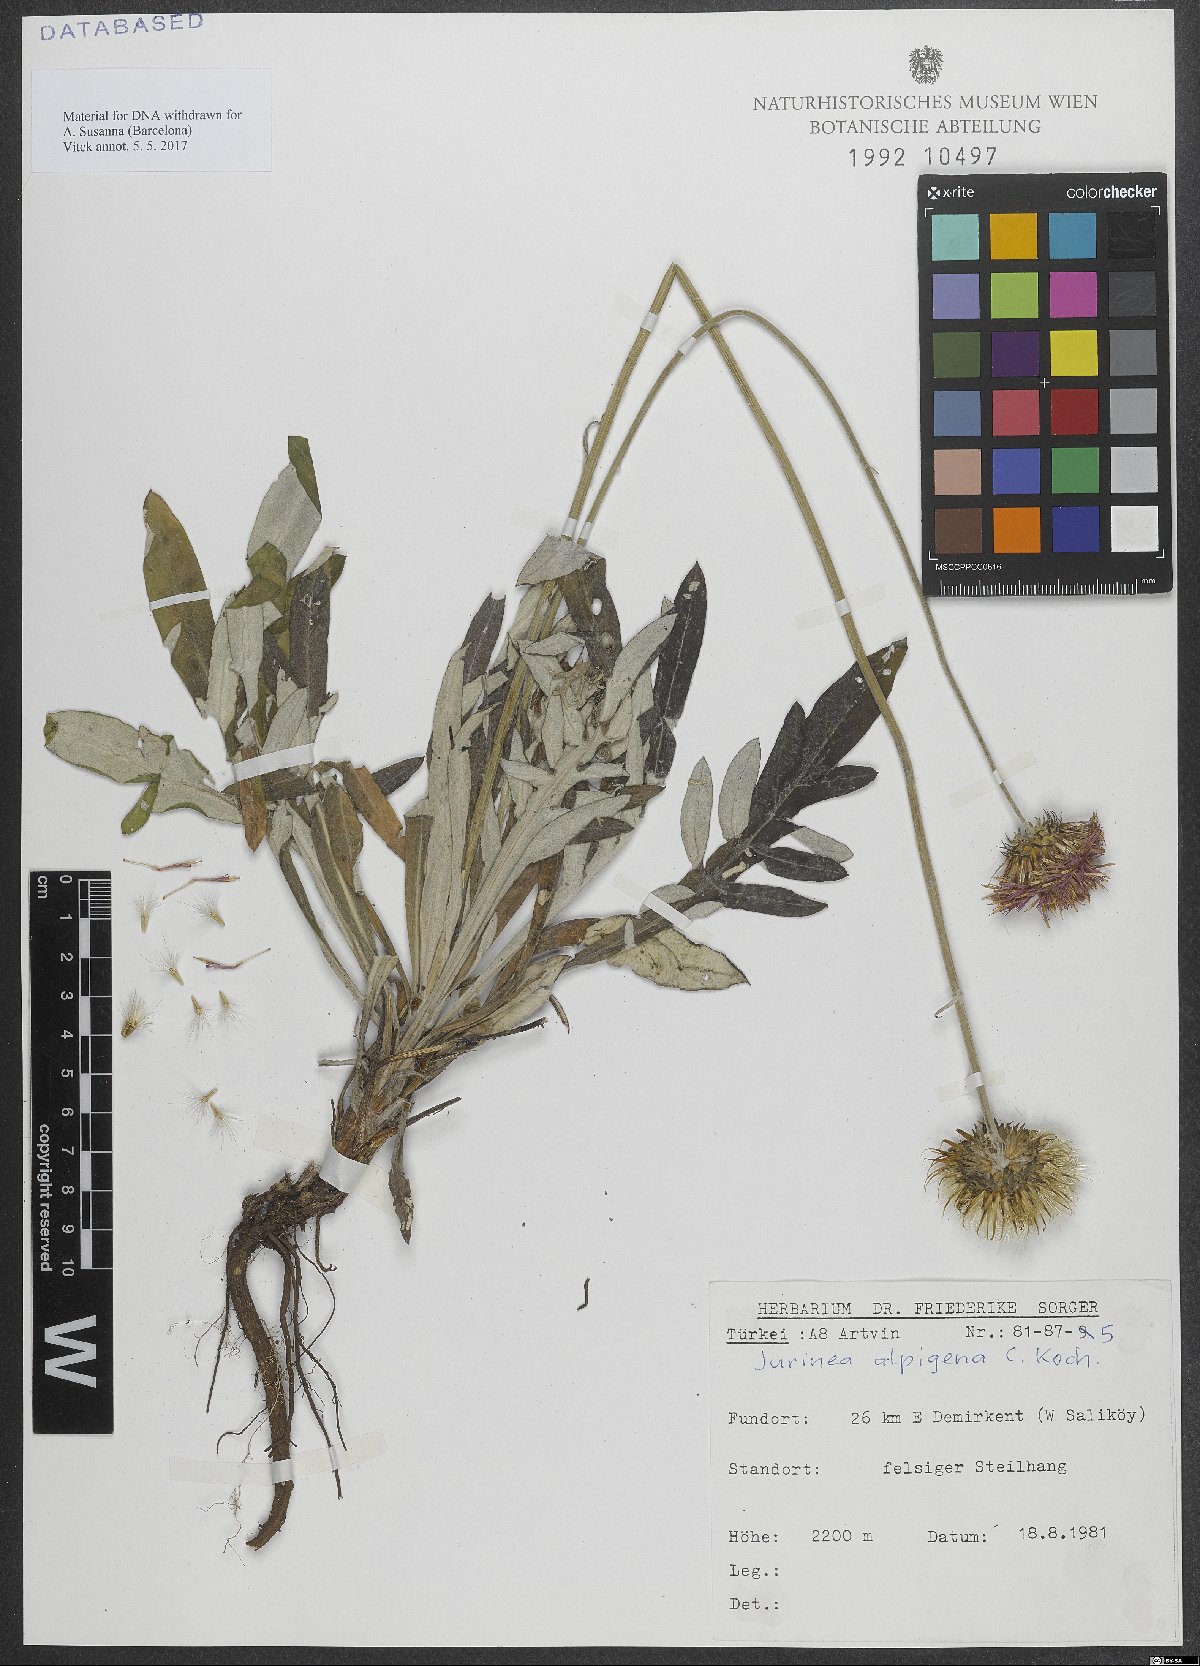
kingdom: Plantae
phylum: Tracheophyta
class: Magnoliopsida
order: Asterales
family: Asteraceae
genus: Jurinea
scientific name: Jurinea alpigena
